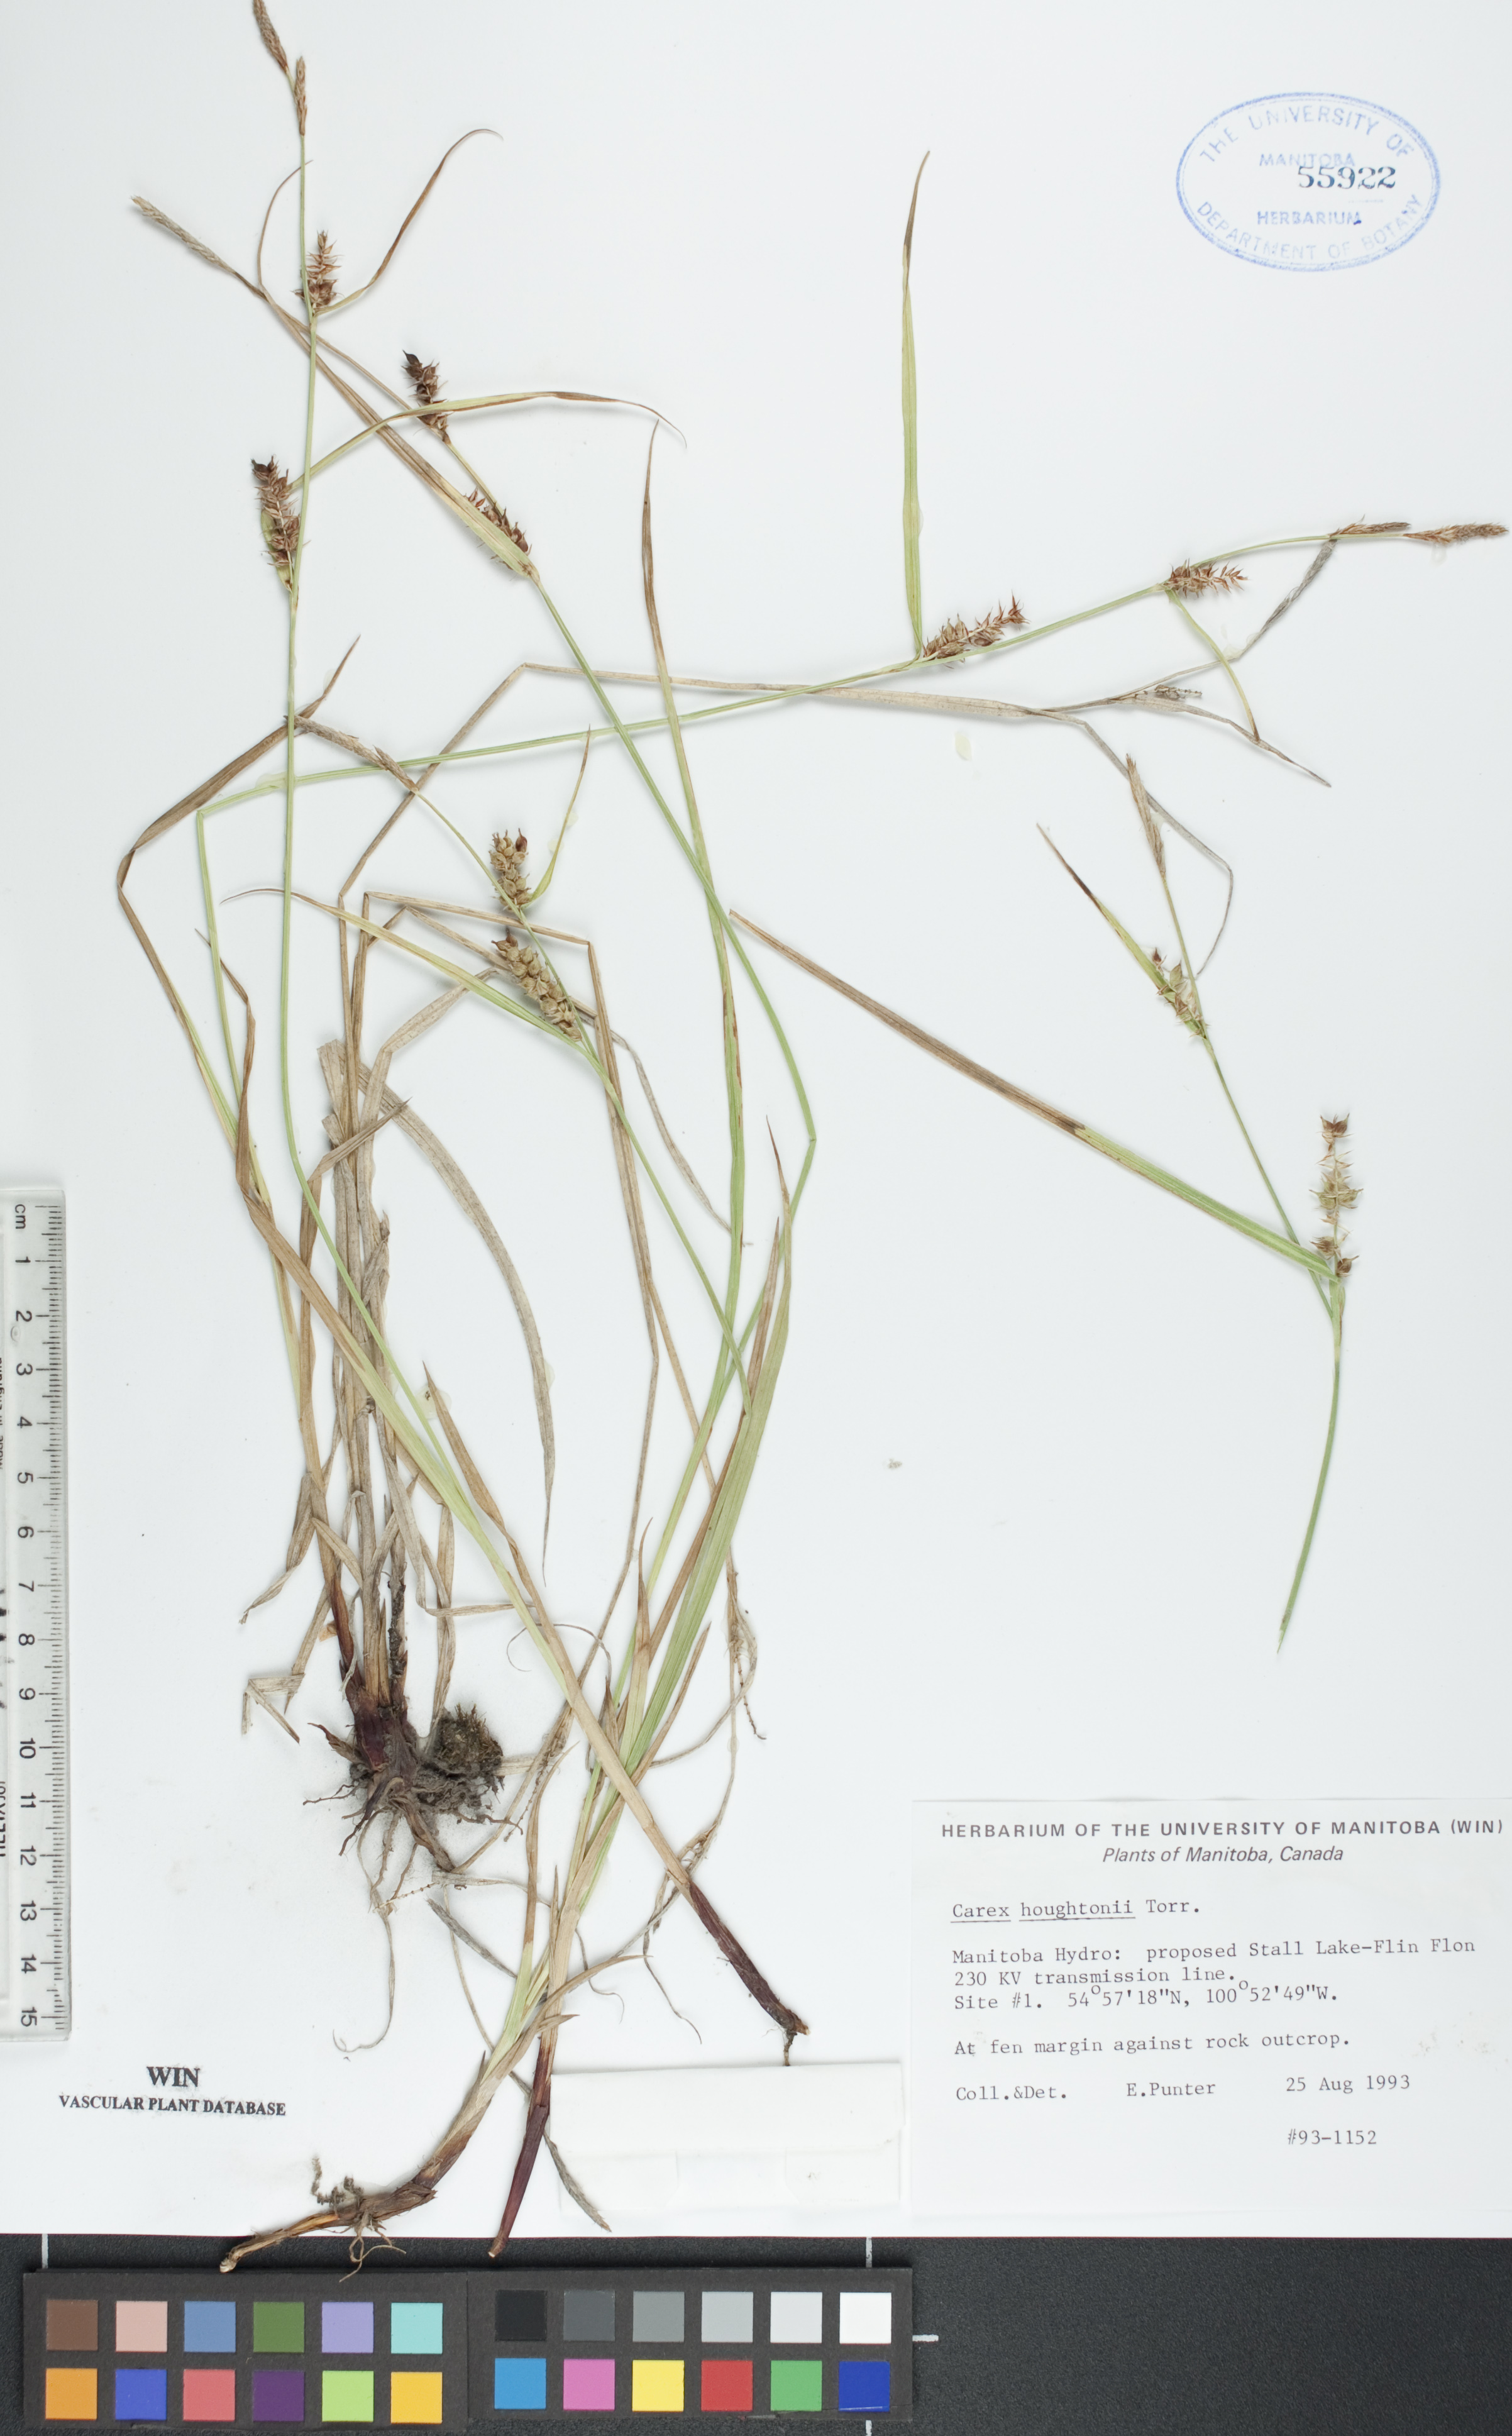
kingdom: Plantae
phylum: Tracheophyta
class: Liliopsida
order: Poales
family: Cyperaceae
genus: Carex
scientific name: Carex houghtoniana
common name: Houghton's sedge
